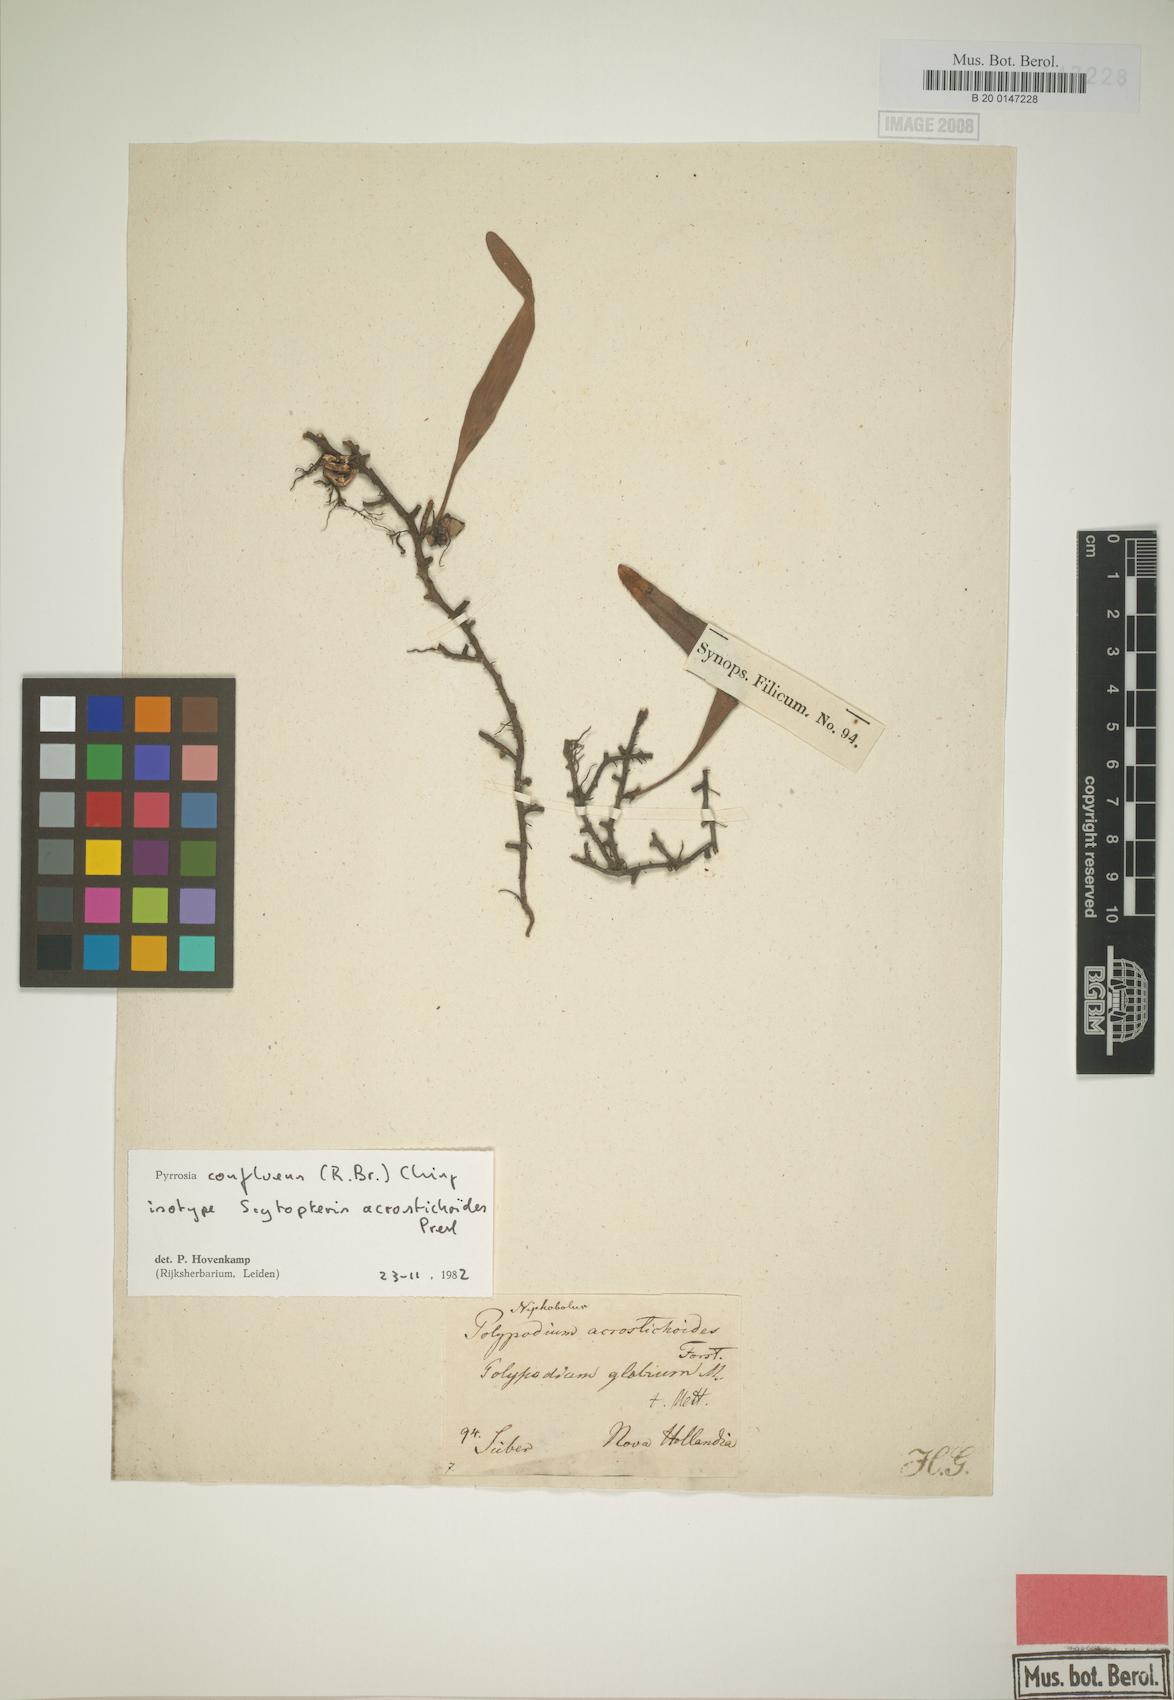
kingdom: Plantae
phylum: Tracheophyta
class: Polypodiopsida
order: Polypodiales
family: Polypodiaceae
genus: Pyrrosia
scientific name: Pyrrosia confluens
